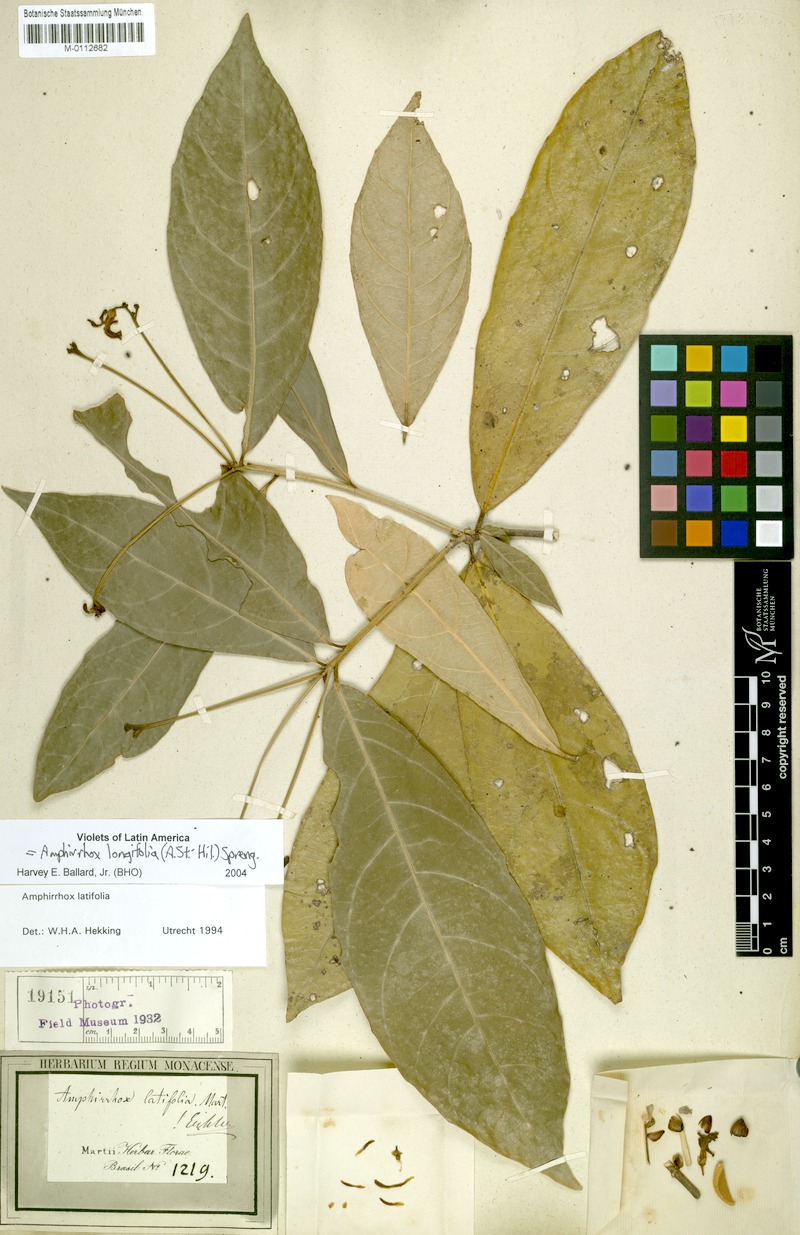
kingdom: Plantae
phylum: Tracheophyta
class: Magnoliopsida
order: Malpighiales
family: Violaceae
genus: Amphirrhox
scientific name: Amphirrhox longifolia
